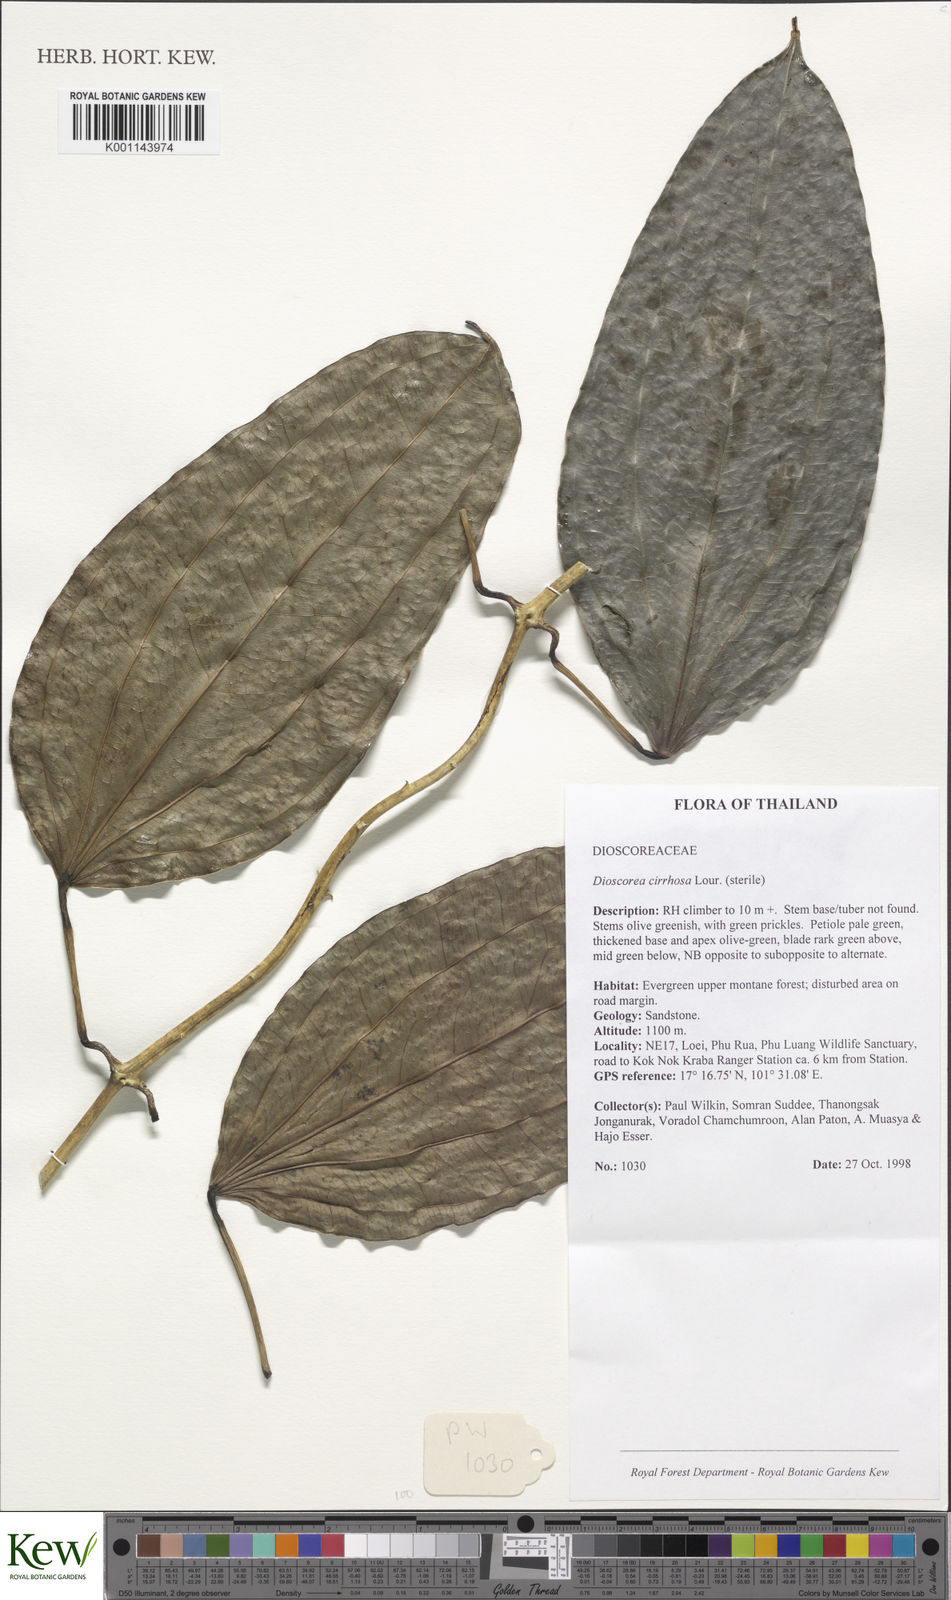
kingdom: Plantae
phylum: Tracheophyta
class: Liliopsida
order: Dioscoreales
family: Dioscoreaceae
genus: Dioscorea
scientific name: Dioscorea cirrhosa
